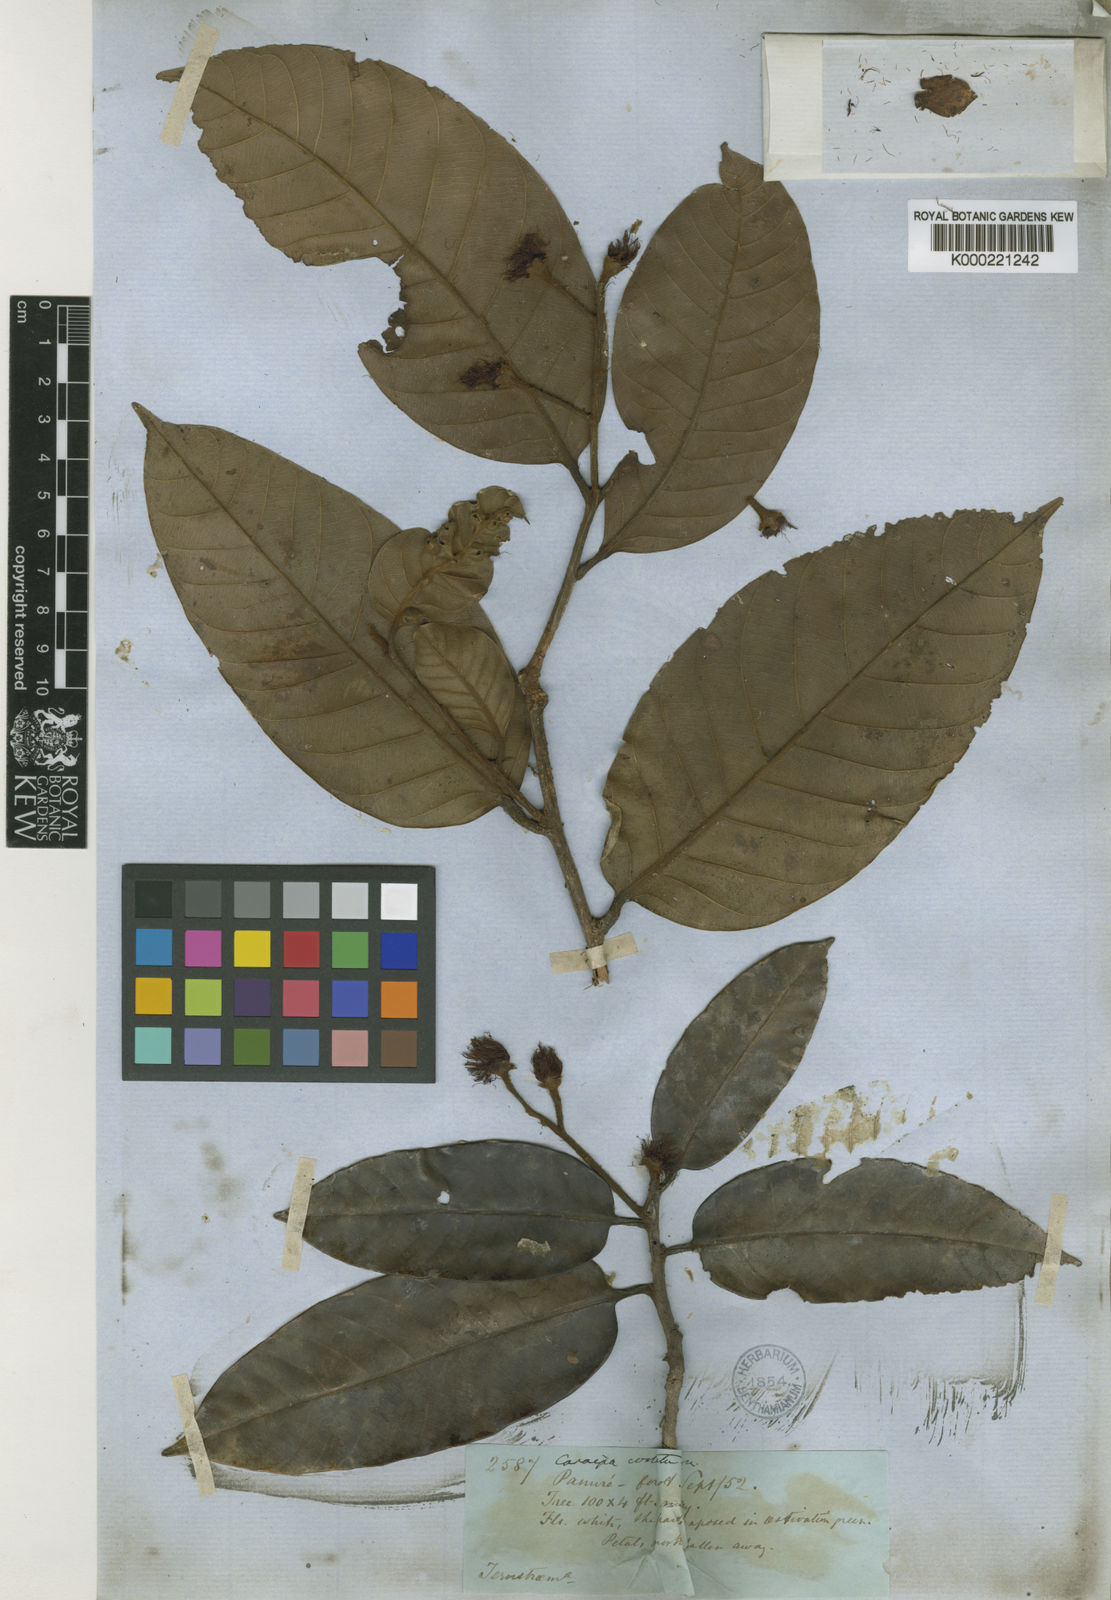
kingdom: Plantae
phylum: Tracheophyta
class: Magnoliopsida
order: Malpighiales
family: Calophyllaceae
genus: Caraipa
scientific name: Caraipa costata
